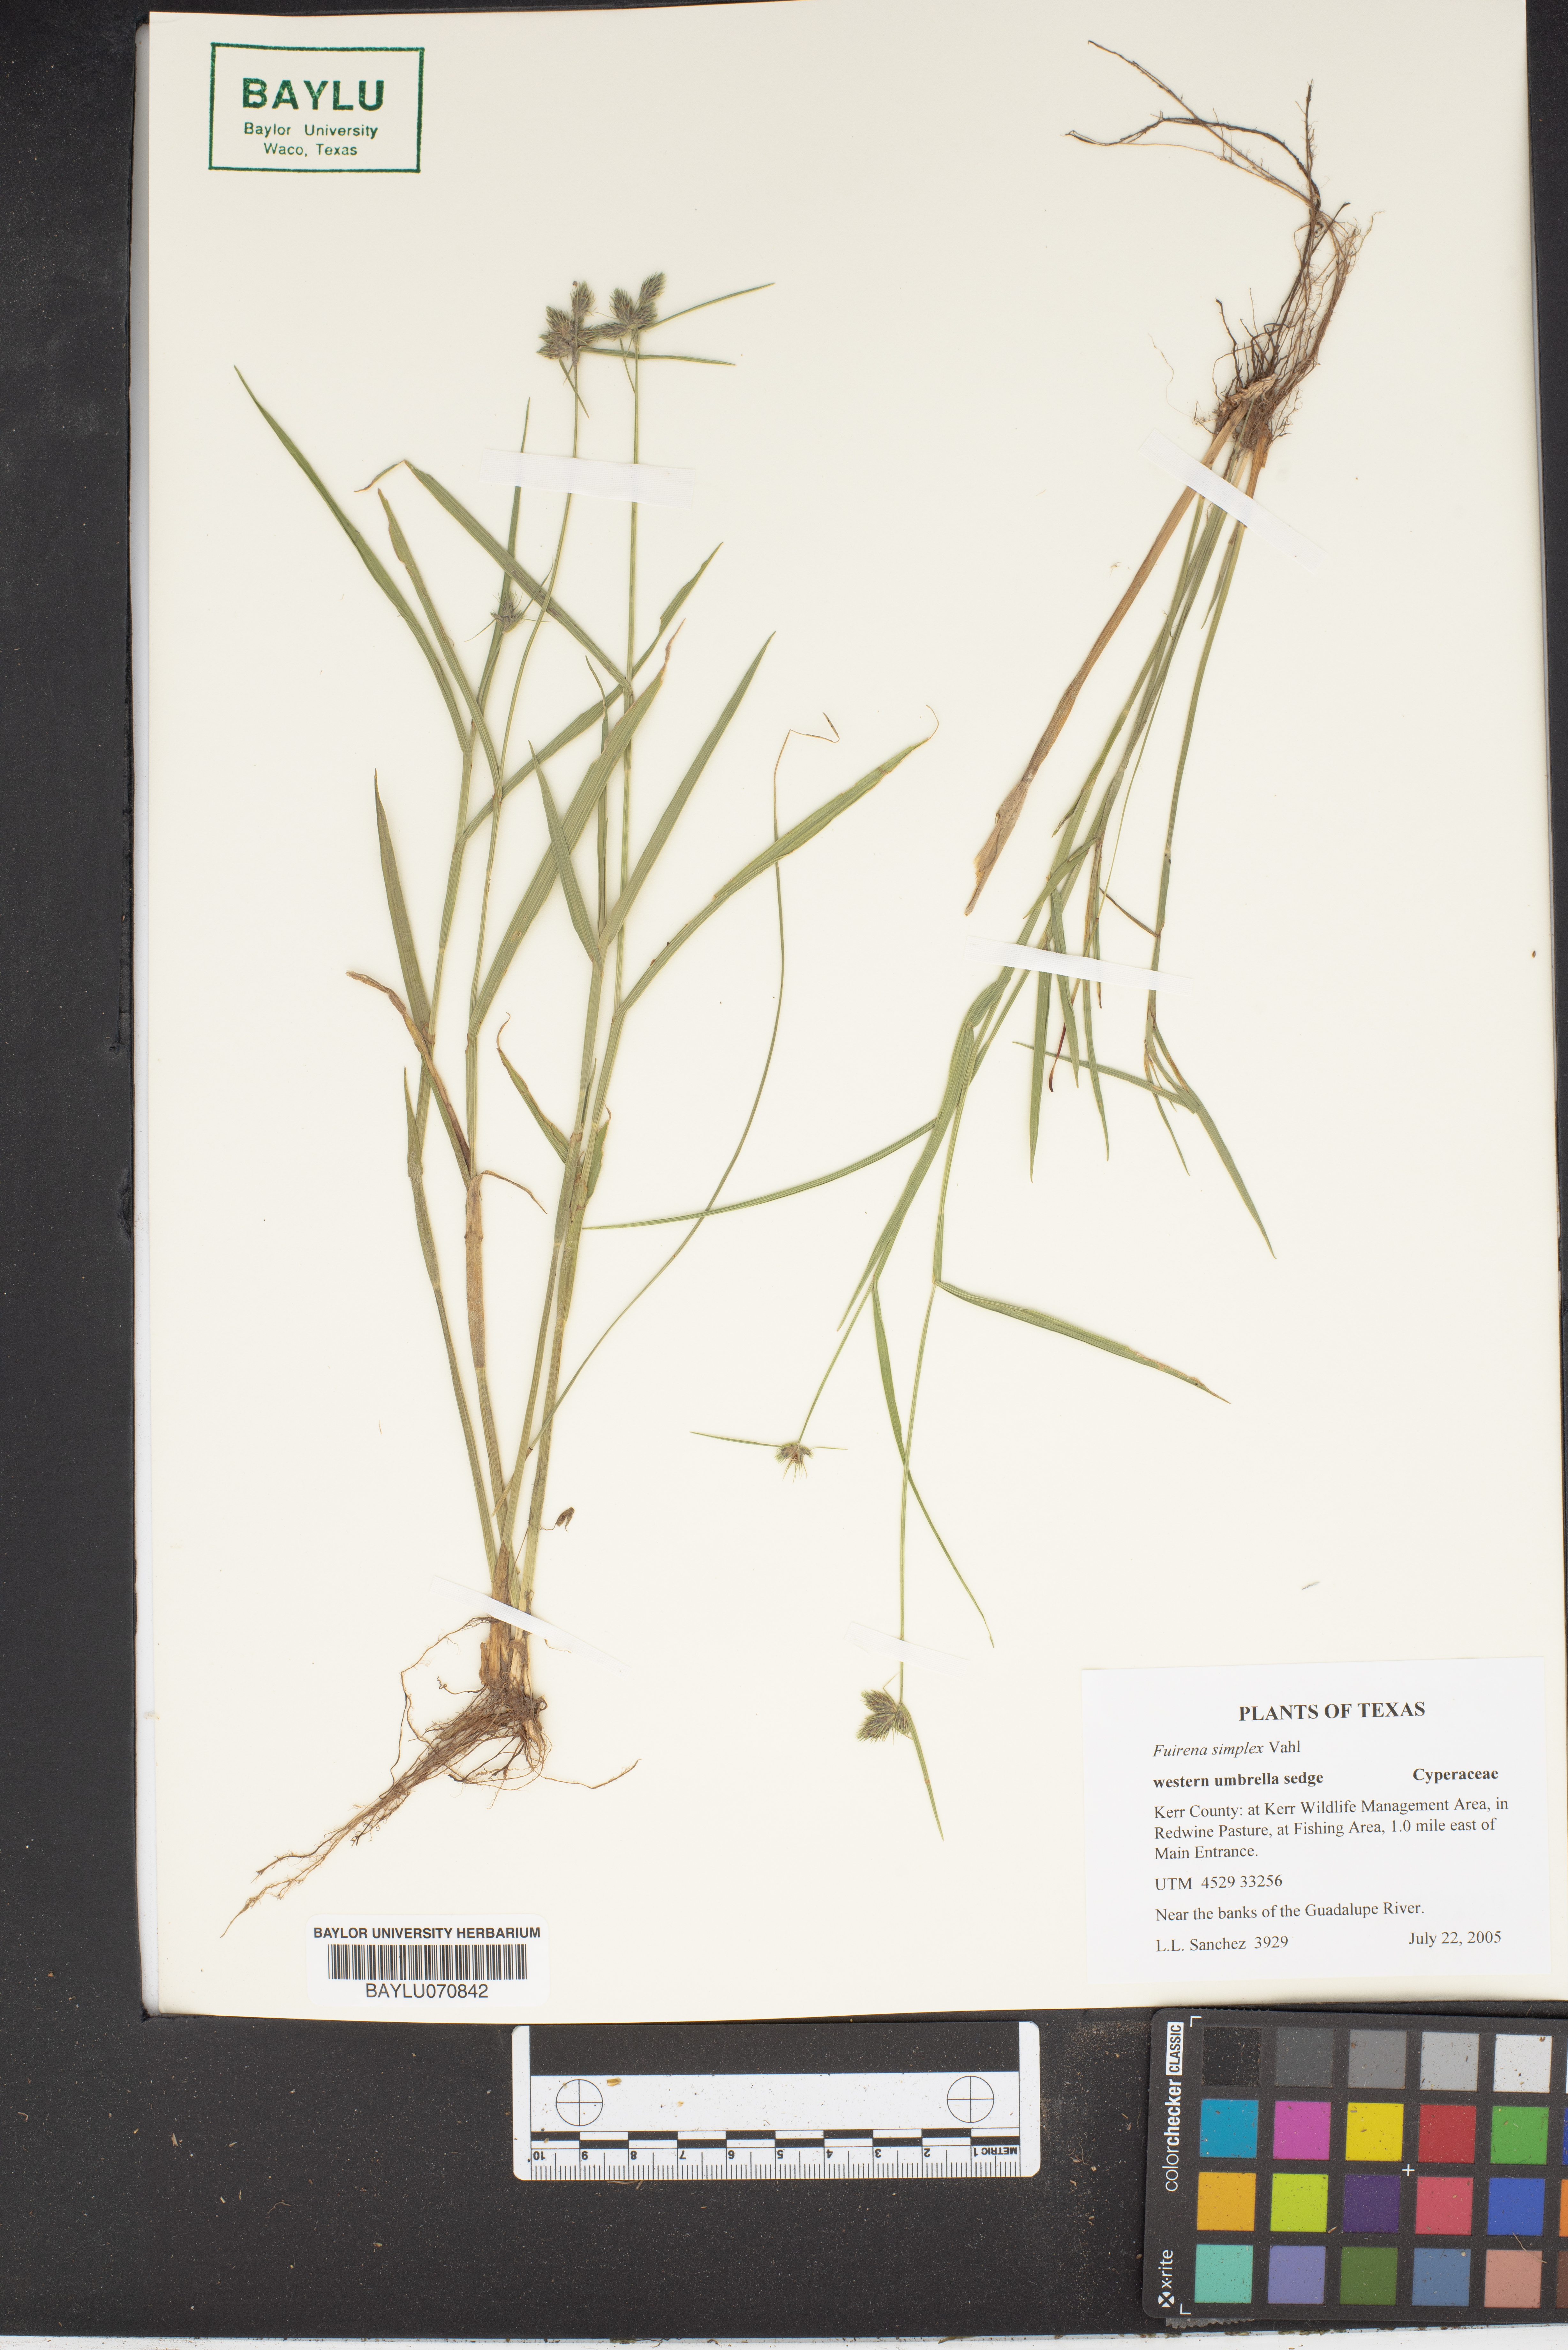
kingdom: Plantae
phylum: Tracheophyta
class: Liliopsida
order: Poales
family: Cyperaceae
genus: Fuirena
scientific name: Fuirena simplex
